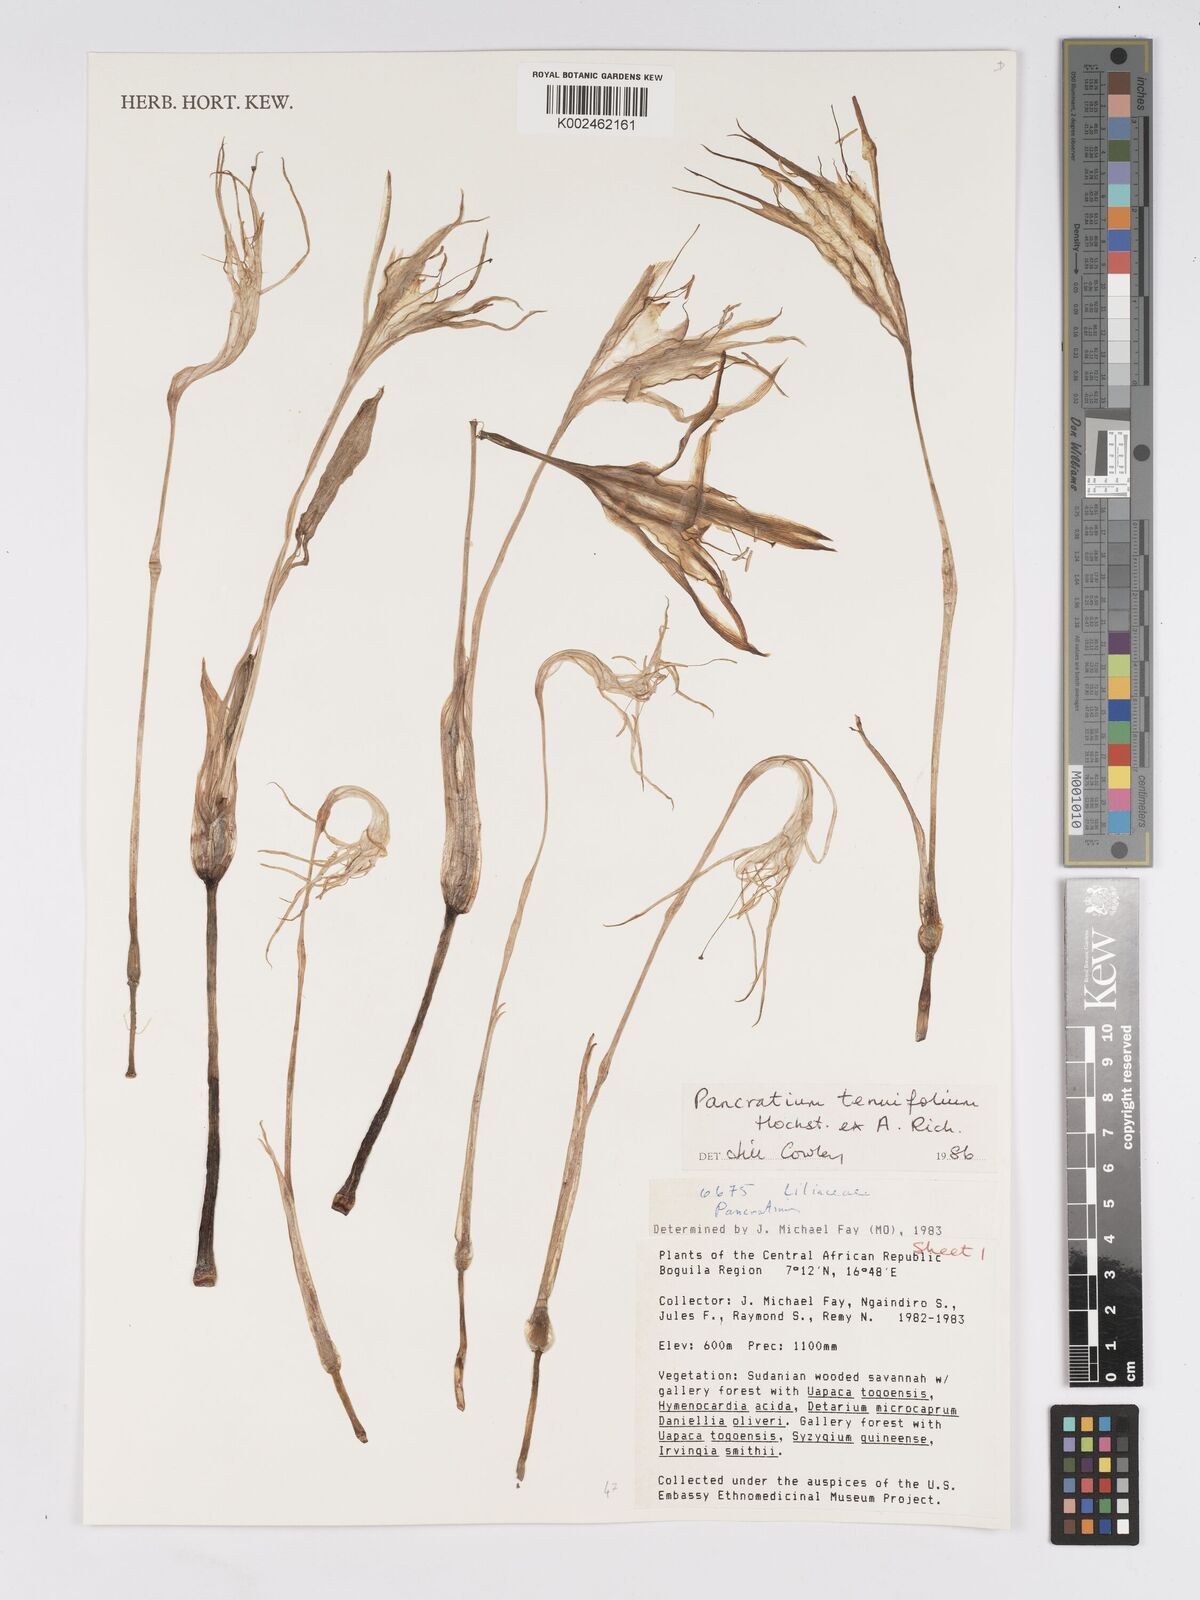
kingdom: Plantae
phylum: Tracheophyta
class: Liliopsida
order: Asparagales
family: Amaryllidaceae
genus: Pancratium
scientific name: Pancratium tenuifolium
